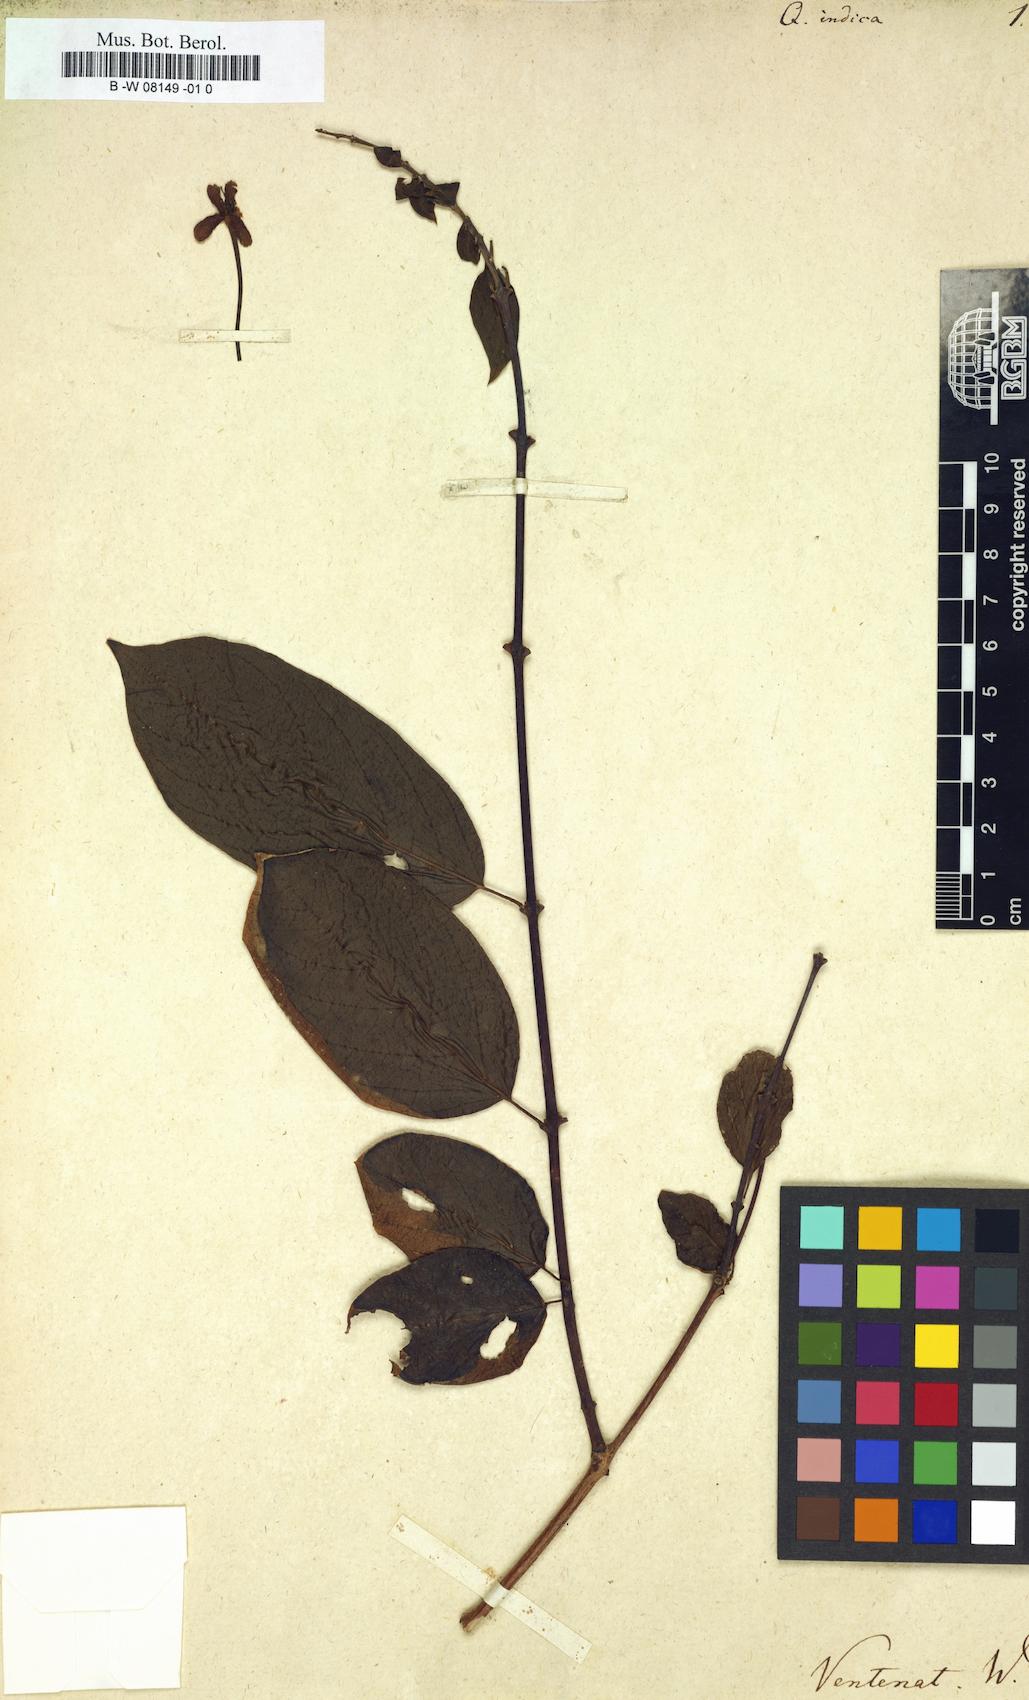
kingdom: Plantae
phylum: Tracheophyta
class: Magnoliopsida
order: Myrtales
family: Combretaceae
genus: Combretum
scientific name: Combretum
